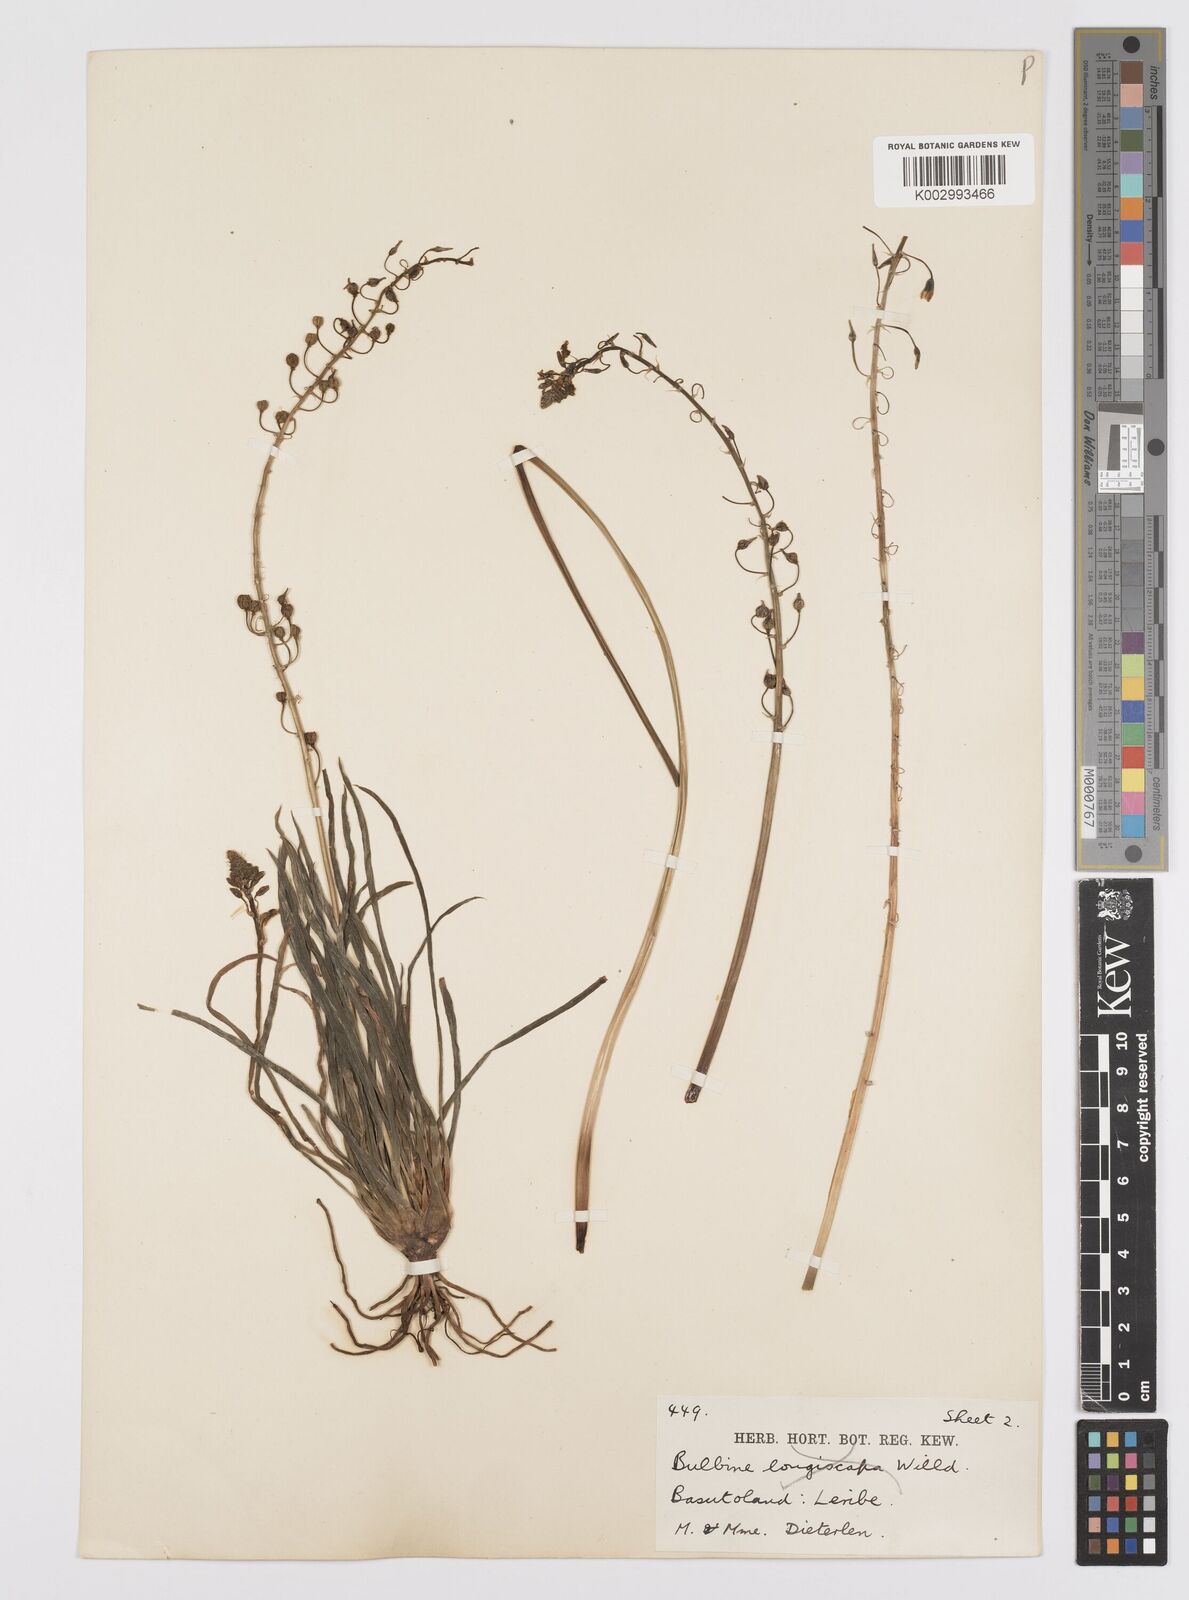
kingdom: Plantae
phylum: Tracheophyta
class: Liliopsida
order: Asparagales
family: Asphodelaceae
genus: Bulbine
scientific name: Bulbine asphodeloides
